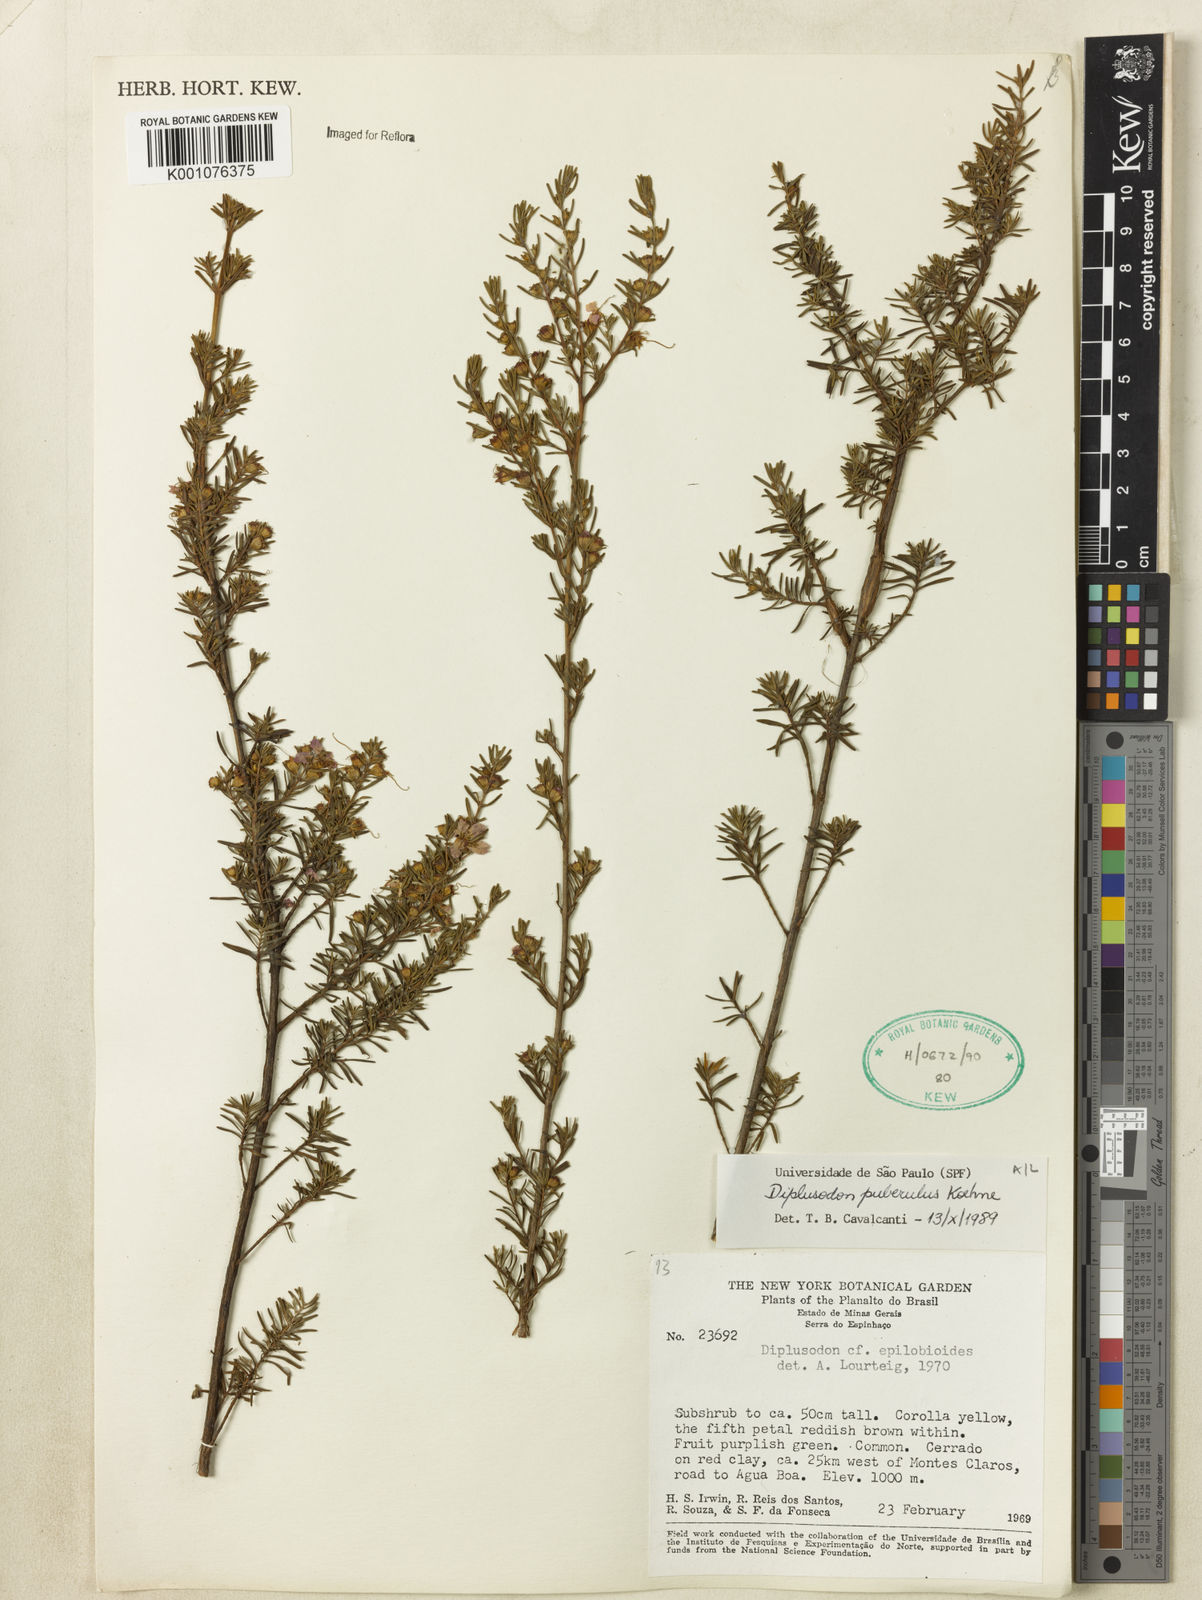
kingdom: Plantae
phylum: Tracheophyta
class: Magnoliopsida
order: Myrtales
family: Lythraceae
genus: Diplusodon
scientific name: Diplusodon puberulus
